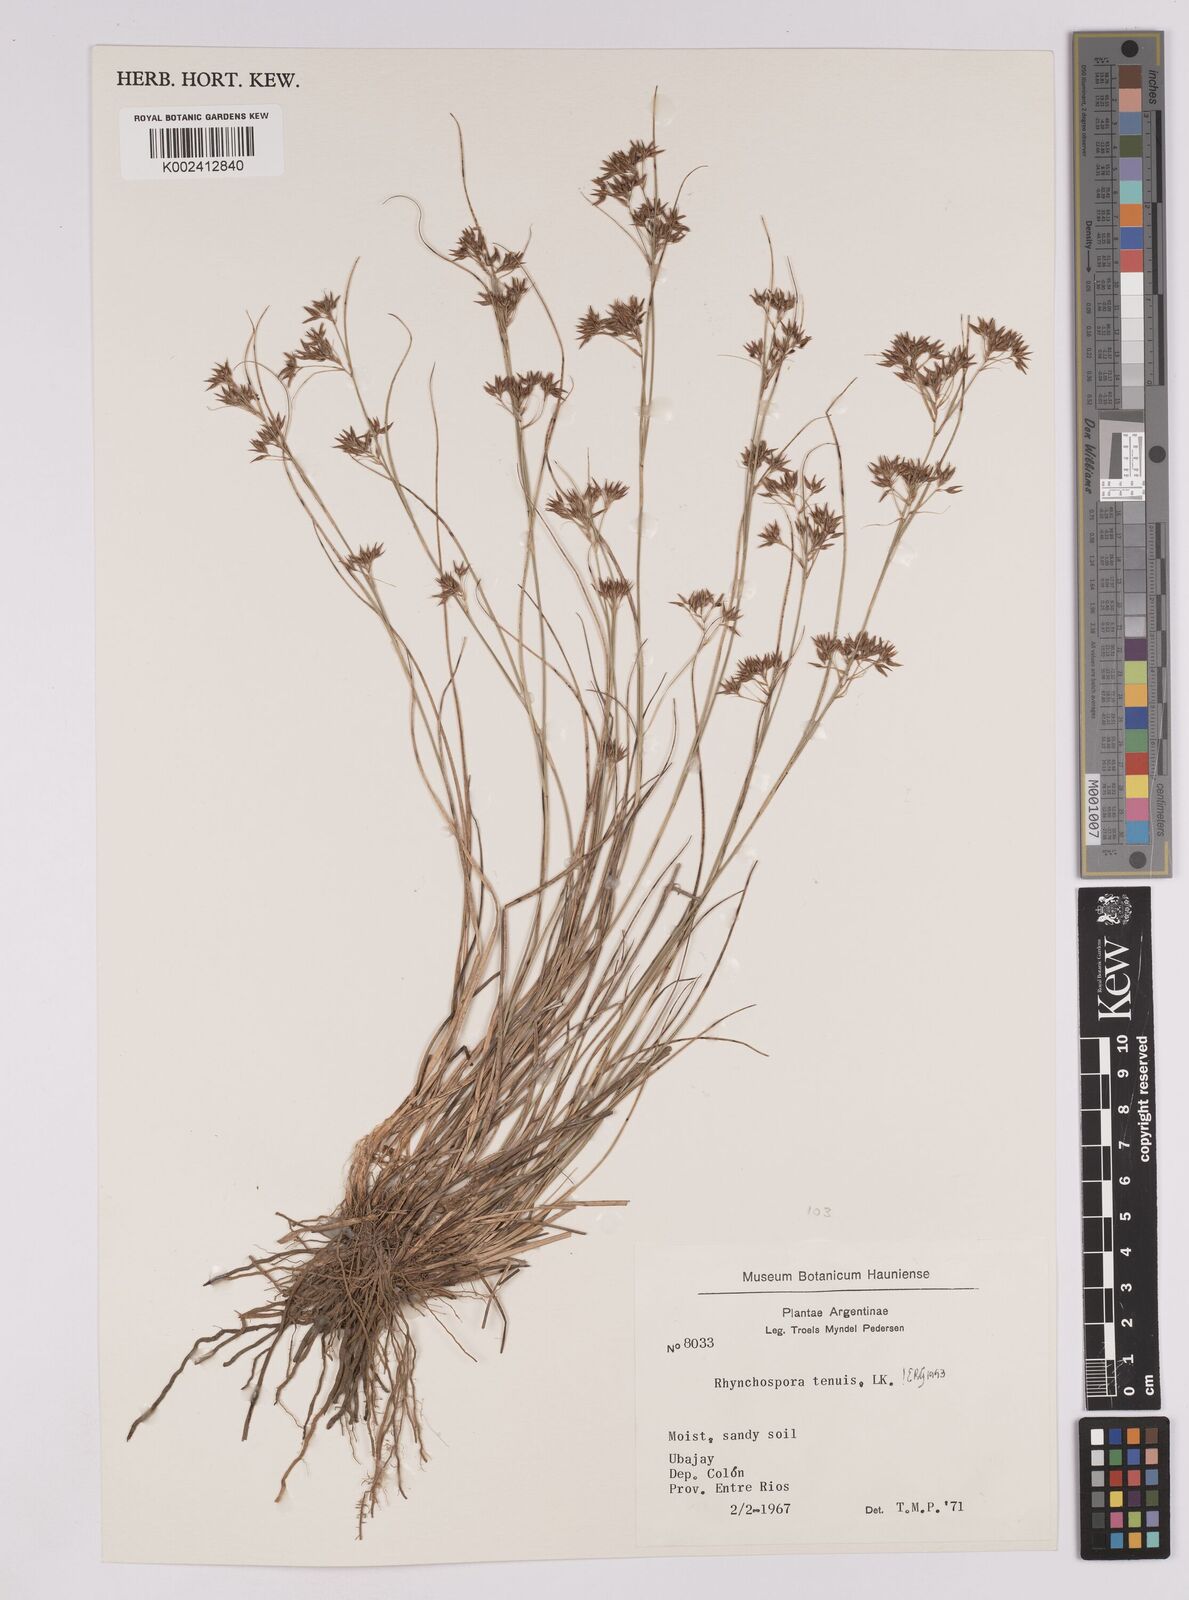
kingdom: Plantae
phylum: Tracheophyta
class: Liliopsida
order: Poales
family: Cyperaceae
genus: Rhynchospora
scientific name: Rhynchospora tenuis
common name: Quill beaksedge
